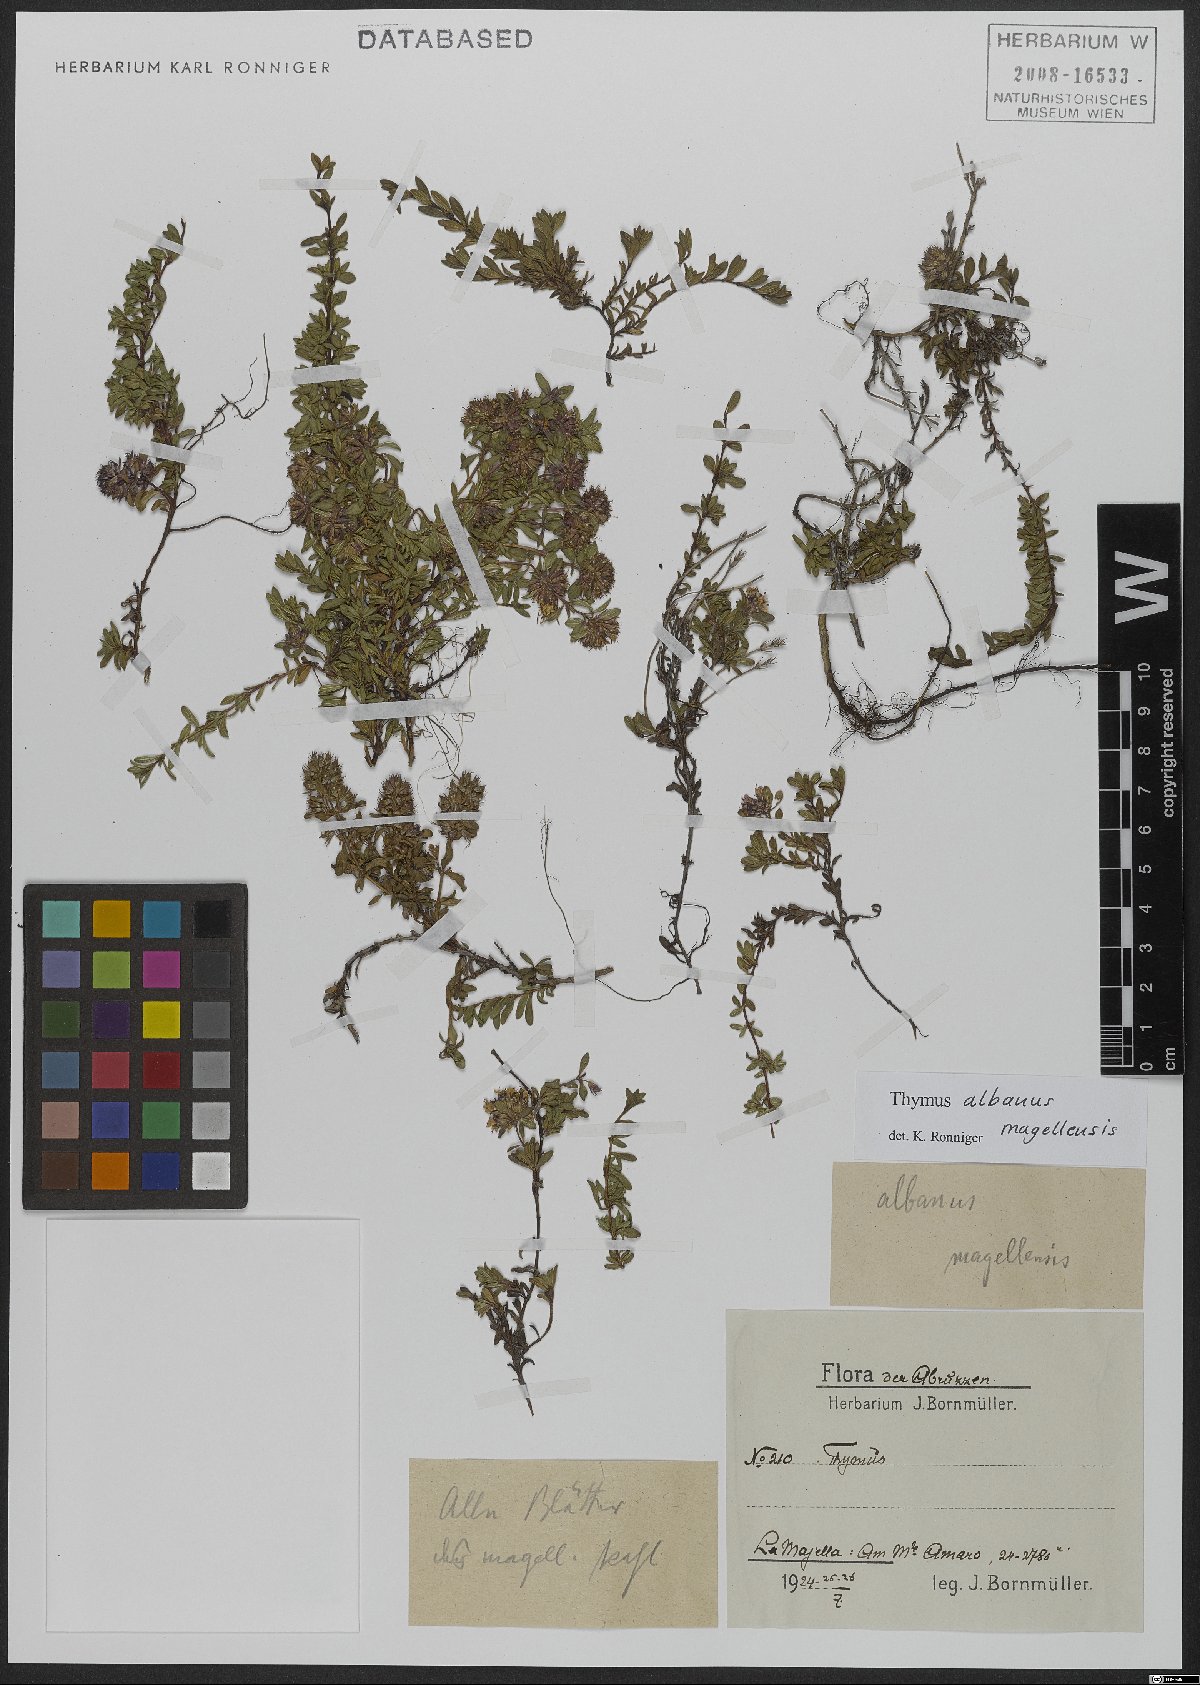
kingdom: Plantae
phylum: Tracheophyta
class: Magnoliopsida
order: Lamiales
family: Lamiaceae
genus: Thymus
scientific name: Thymus zygiformis
